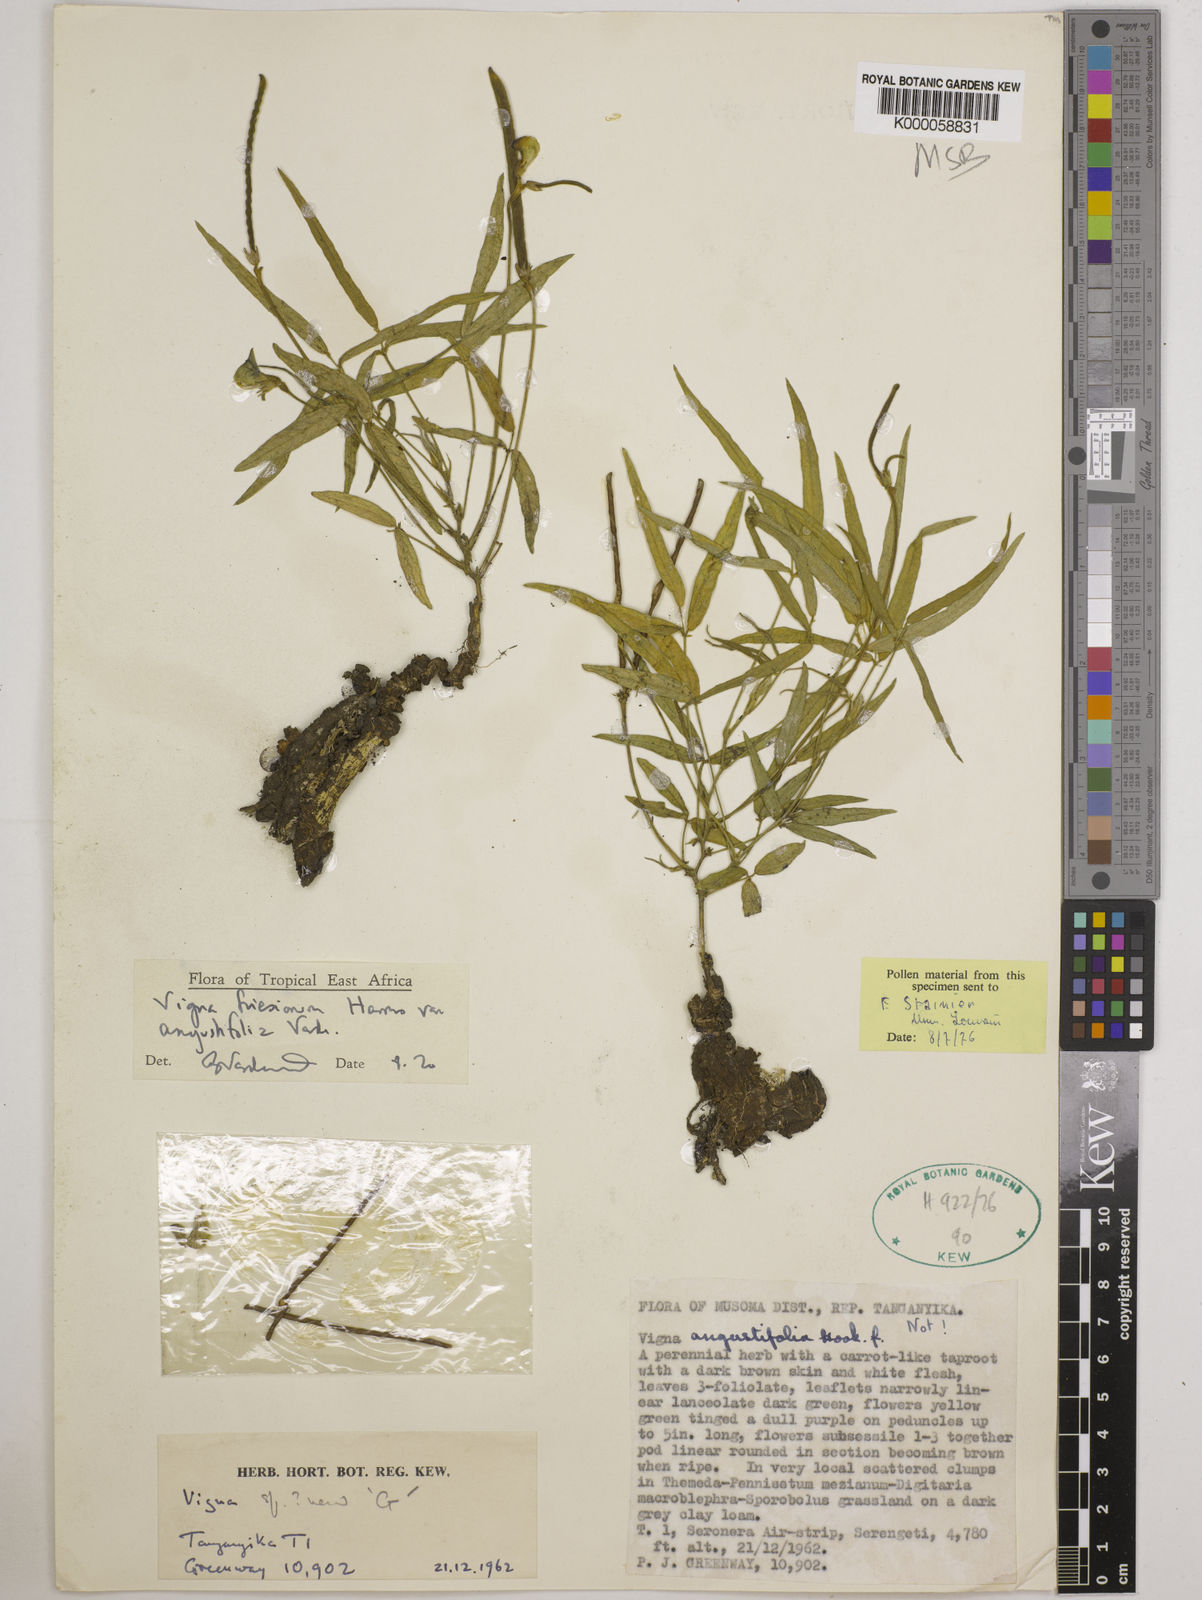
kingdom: Plantae
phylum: Tracheophyta
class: Magnoliopsida
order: Fabales
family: Fabaceae
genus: Vigna
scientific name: Vigna
